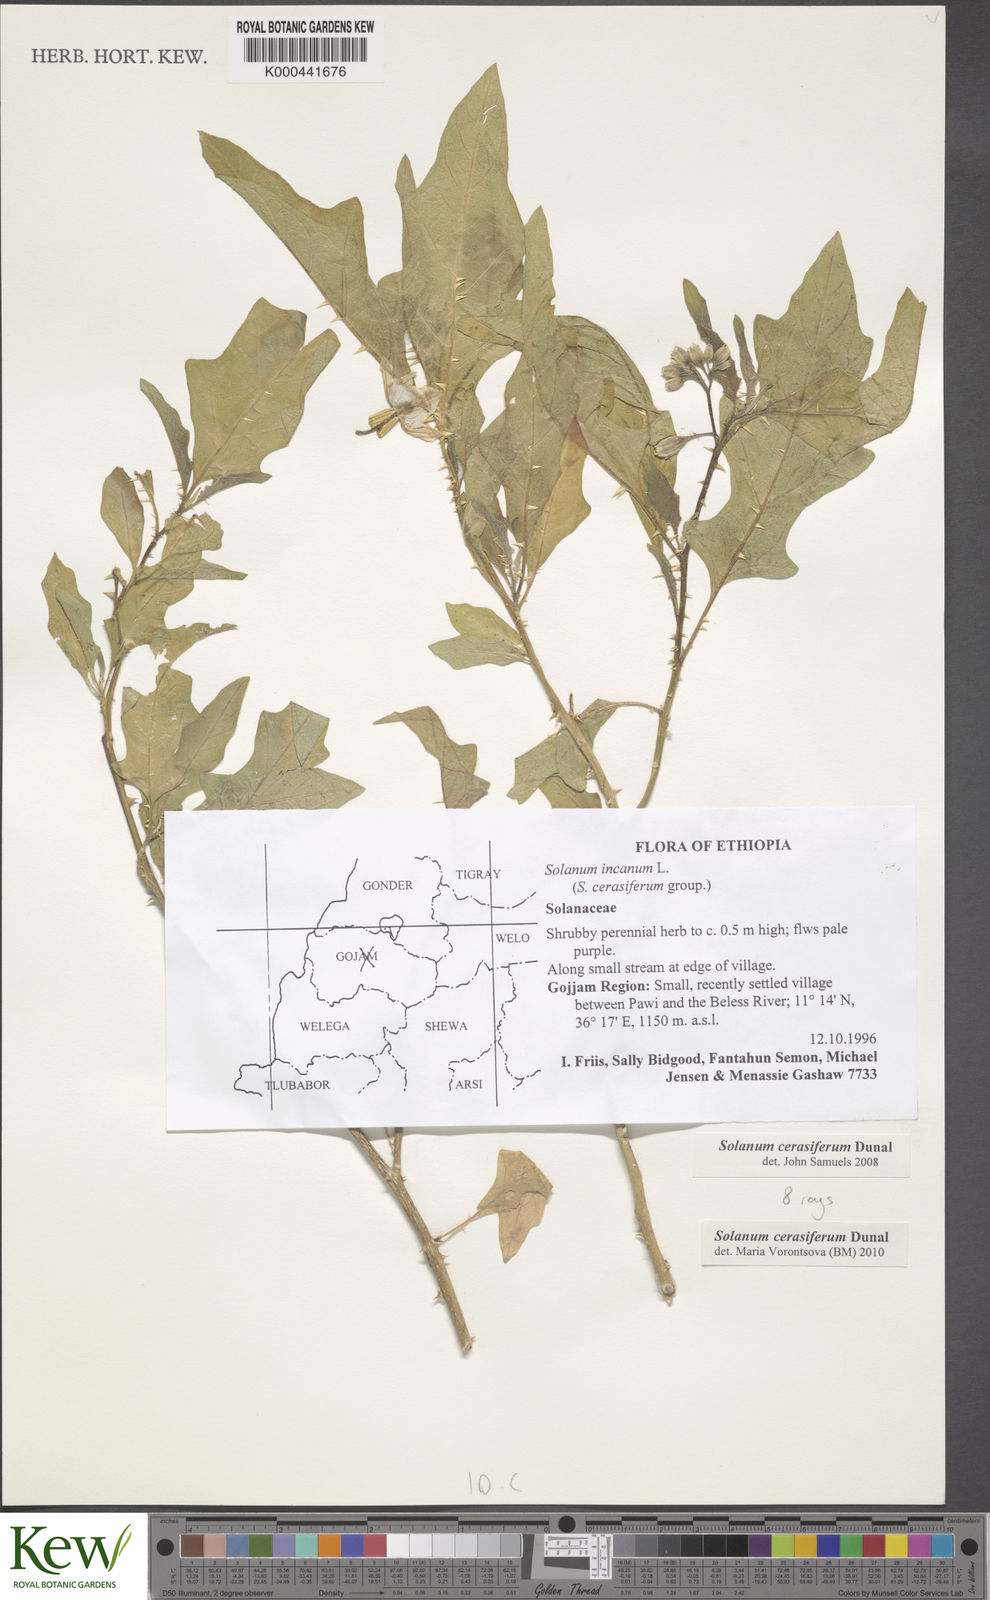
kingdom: Plantae
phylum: Tracheophyta
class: Magnoliopsida
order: Solanales
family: Solanaceae
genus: Solanum
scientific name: Solanum cerasiferum
